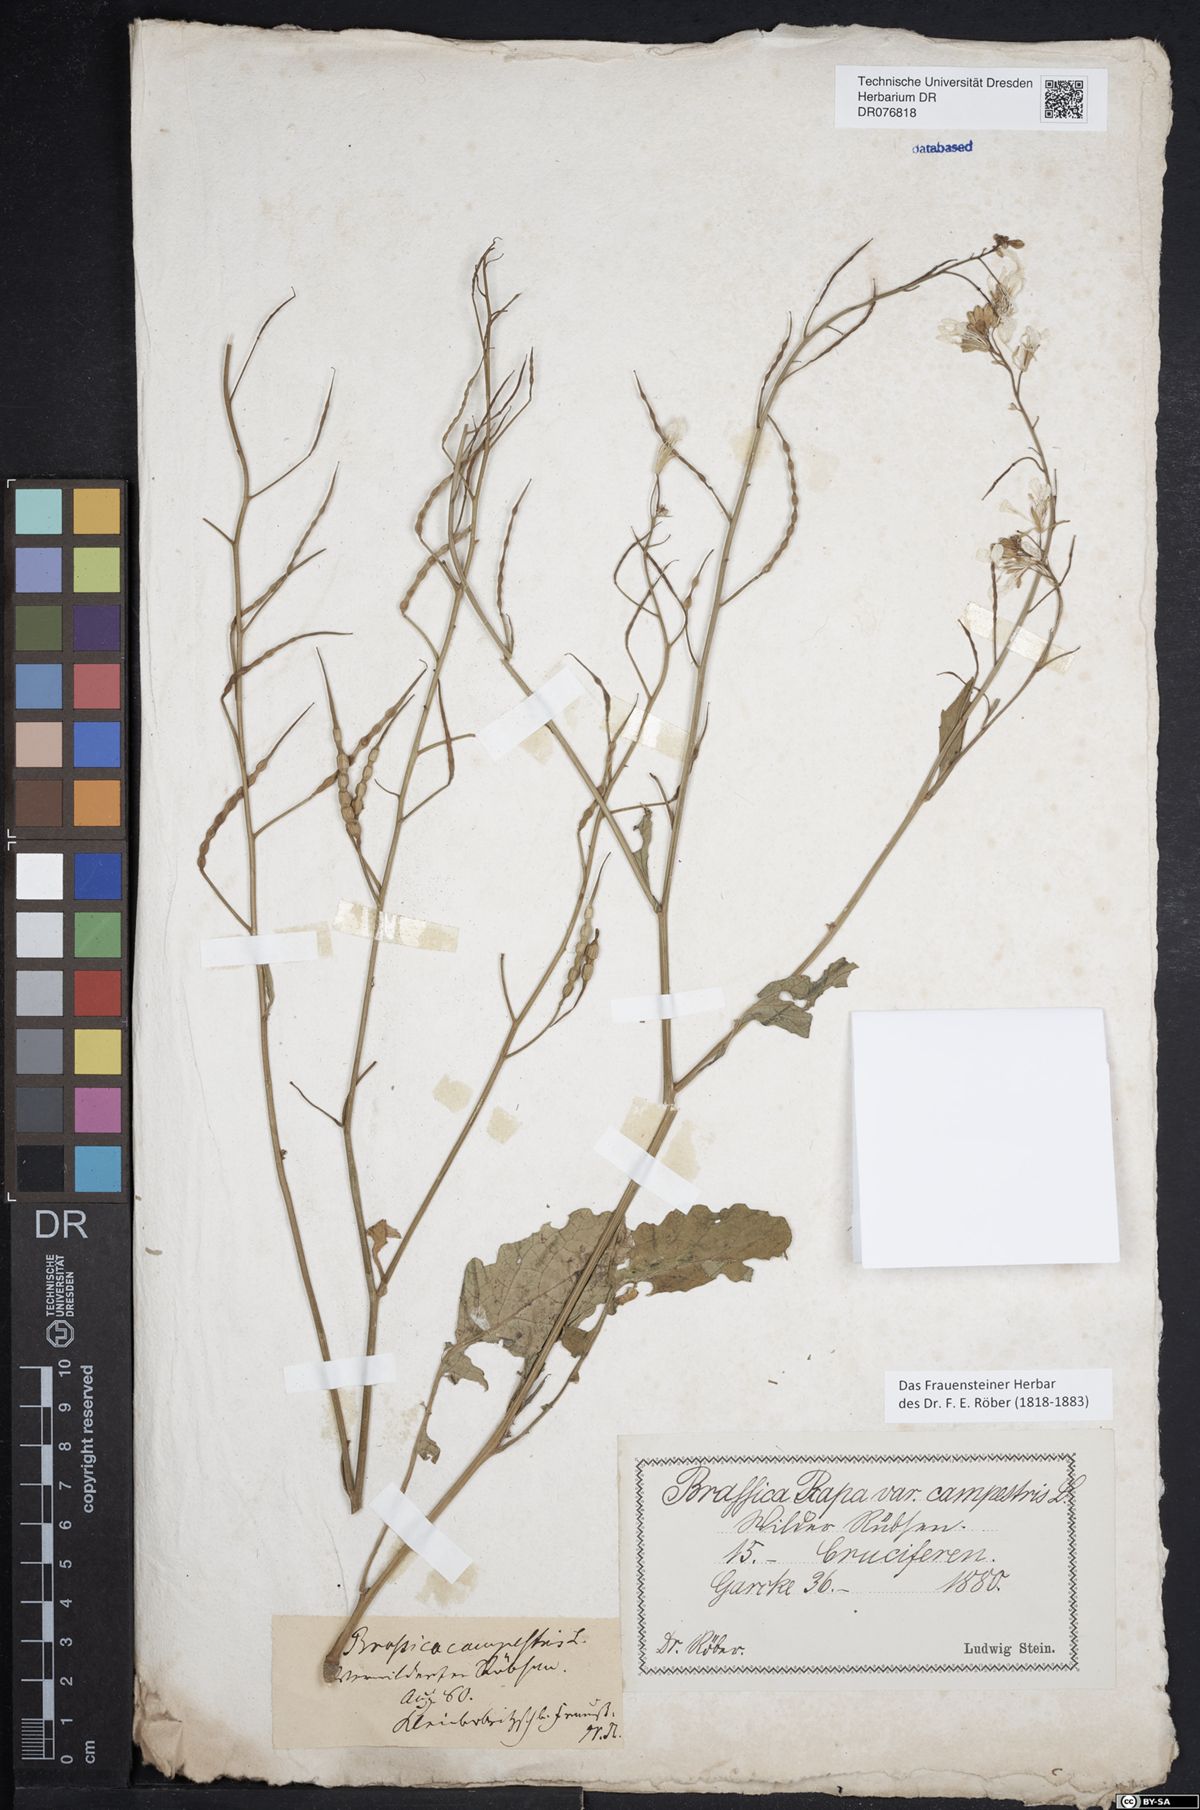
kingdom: Plantae
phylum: Tracheophyta
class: Magnoliopsida
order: Brassicales
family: Brassicaceae
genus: Erysimum
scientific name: Erysimum cheiranthoides
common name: Treacle mustard
